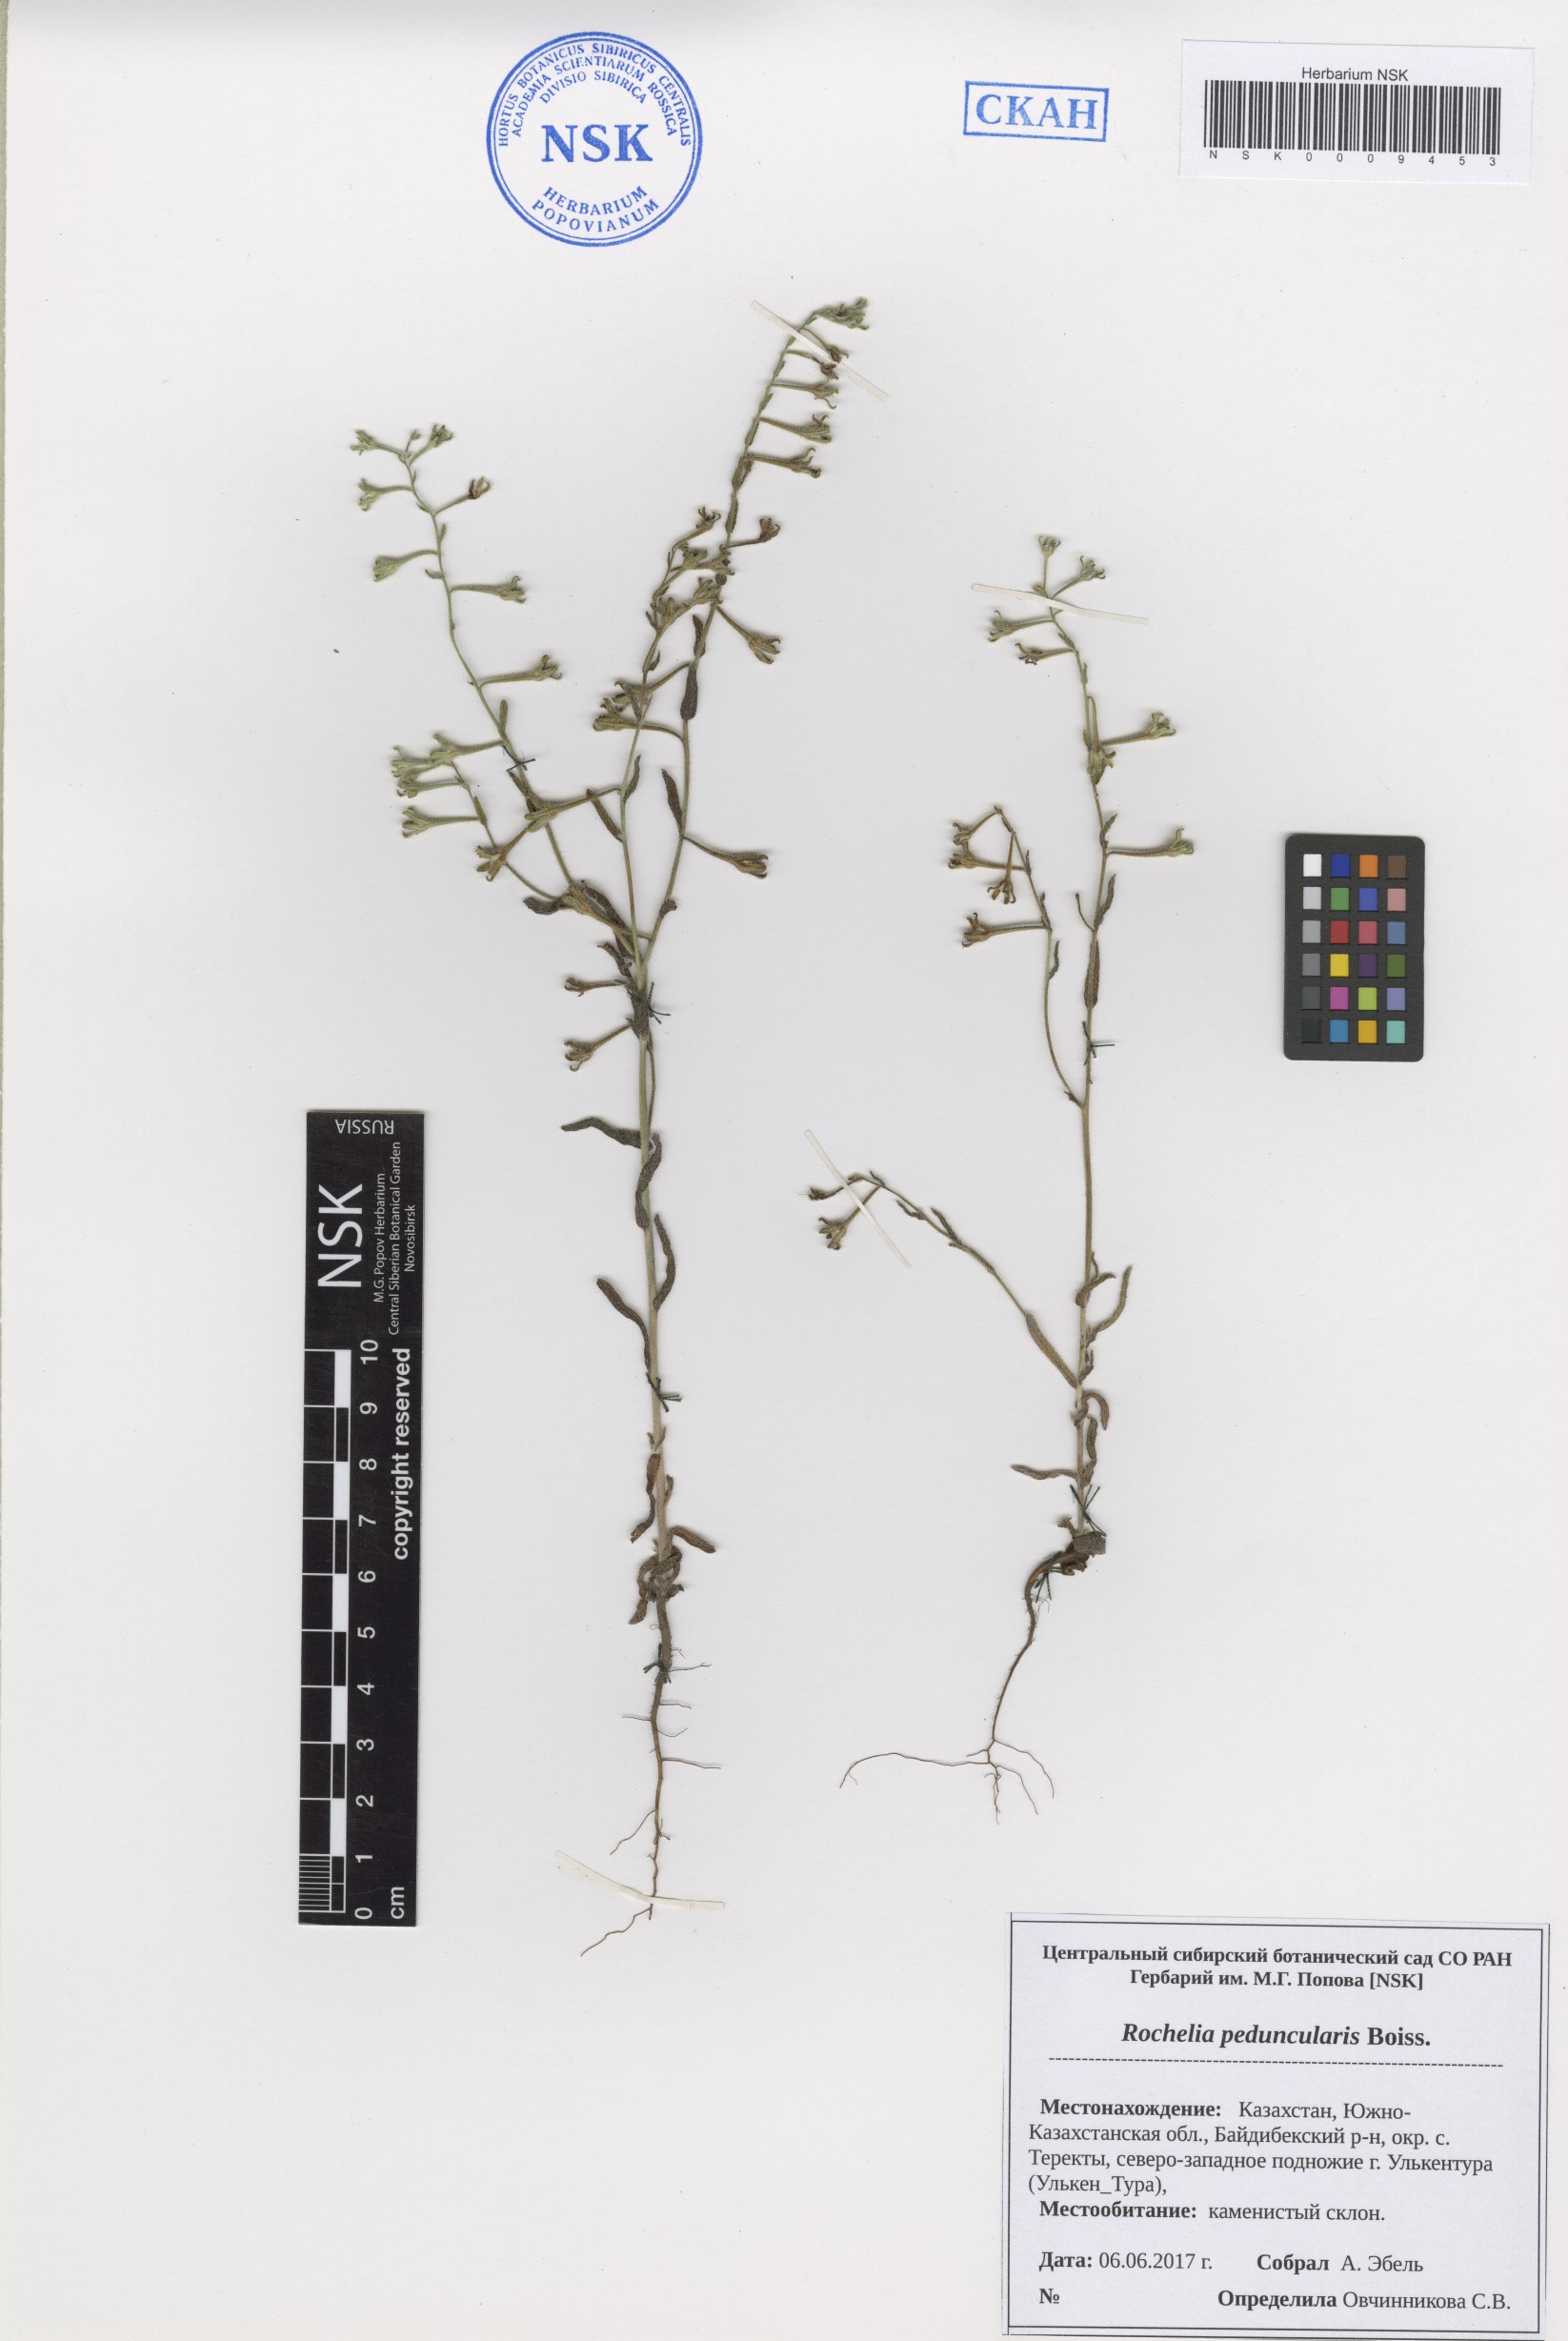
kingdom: Plantae
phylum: Tracheophyta
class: Magnoliopsida
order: Boraginales
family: Boraginaceae
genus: Rochelia
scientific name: Rochelia peduncularis
